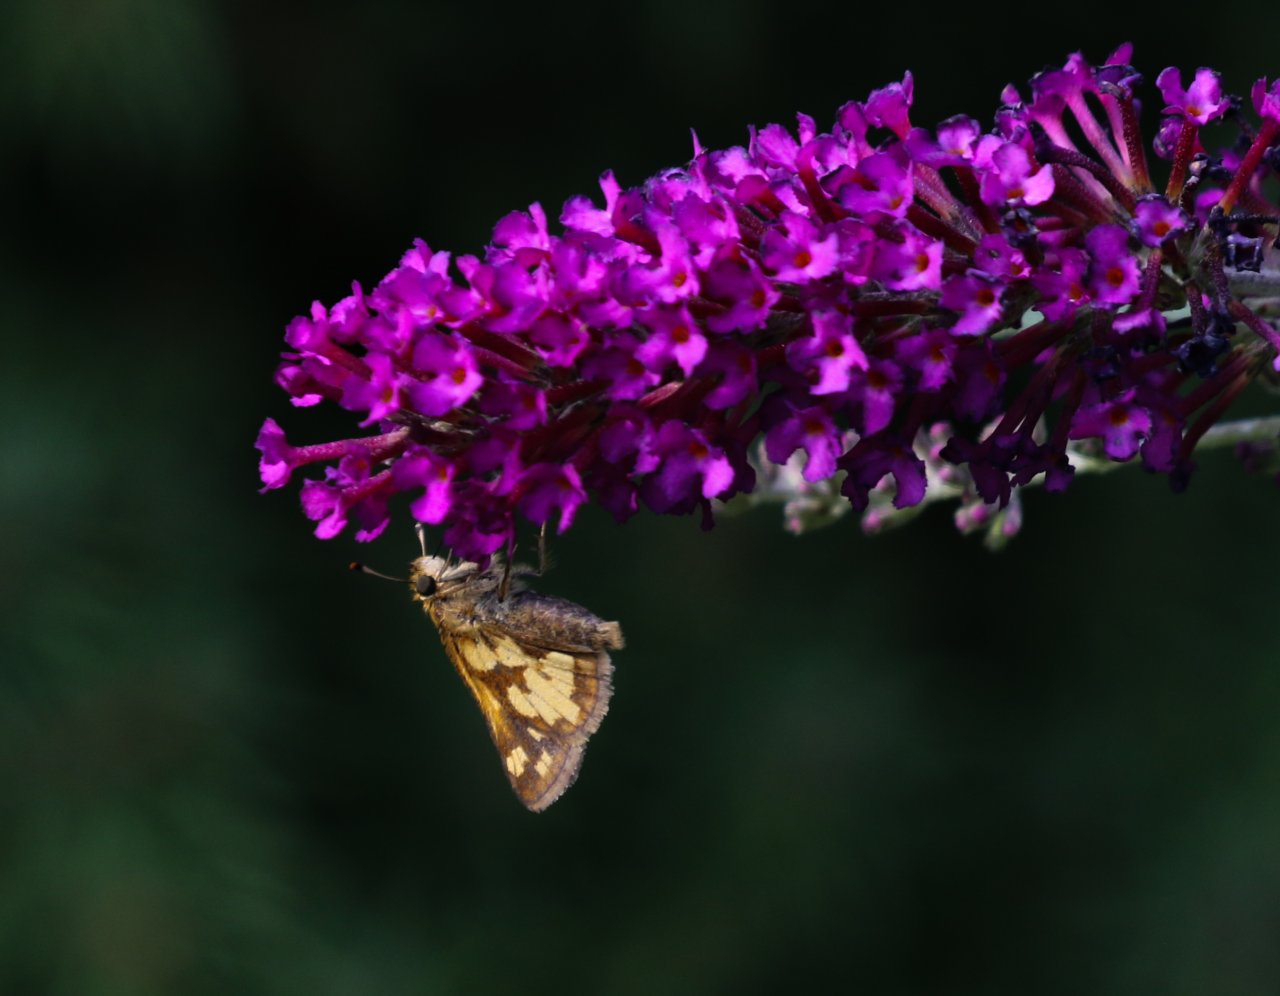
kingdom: Animalia
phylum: Arthropoda
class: Insecta
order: Lepidoptera
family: Hesperiidae
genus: Polites
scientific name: Polites coras
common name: Peck's Skipper
